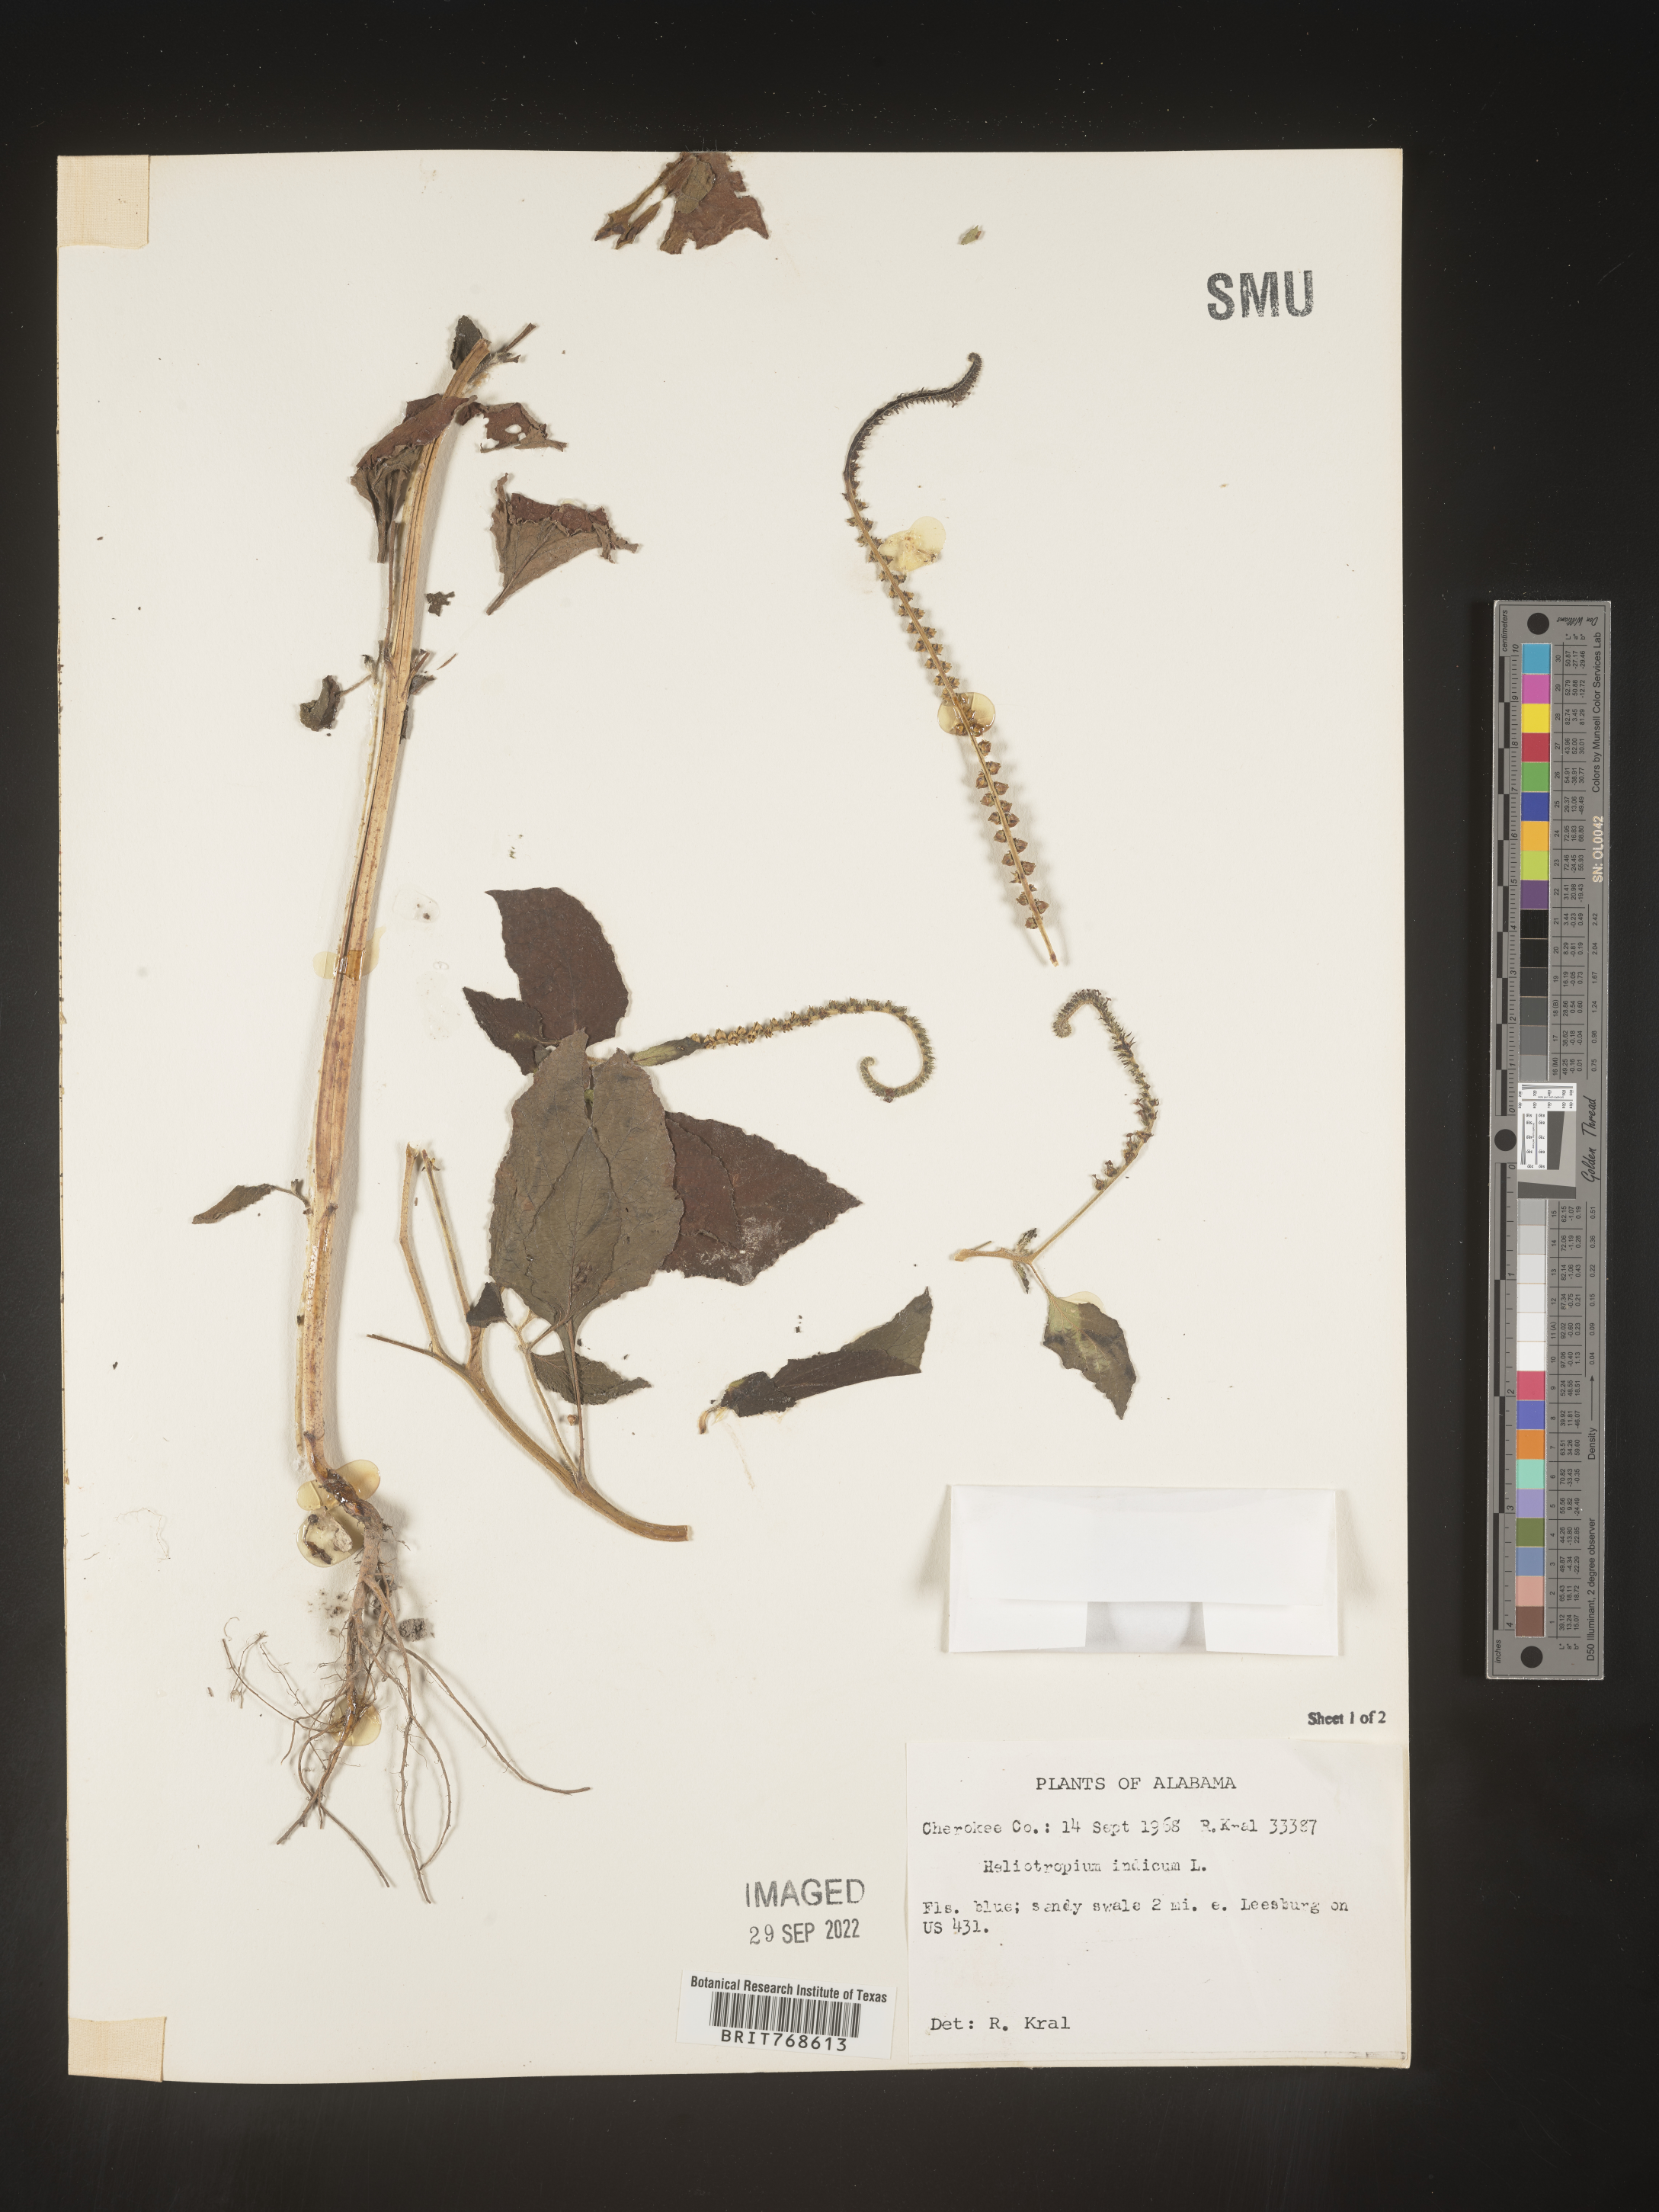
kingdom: Plantae
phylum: Tracheophyta
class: Magnoliopsida
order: Boraginales
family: Heliotropiaceae
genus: Heliotropium
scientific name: Heliotropium indicum
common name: Indian heliotrope
